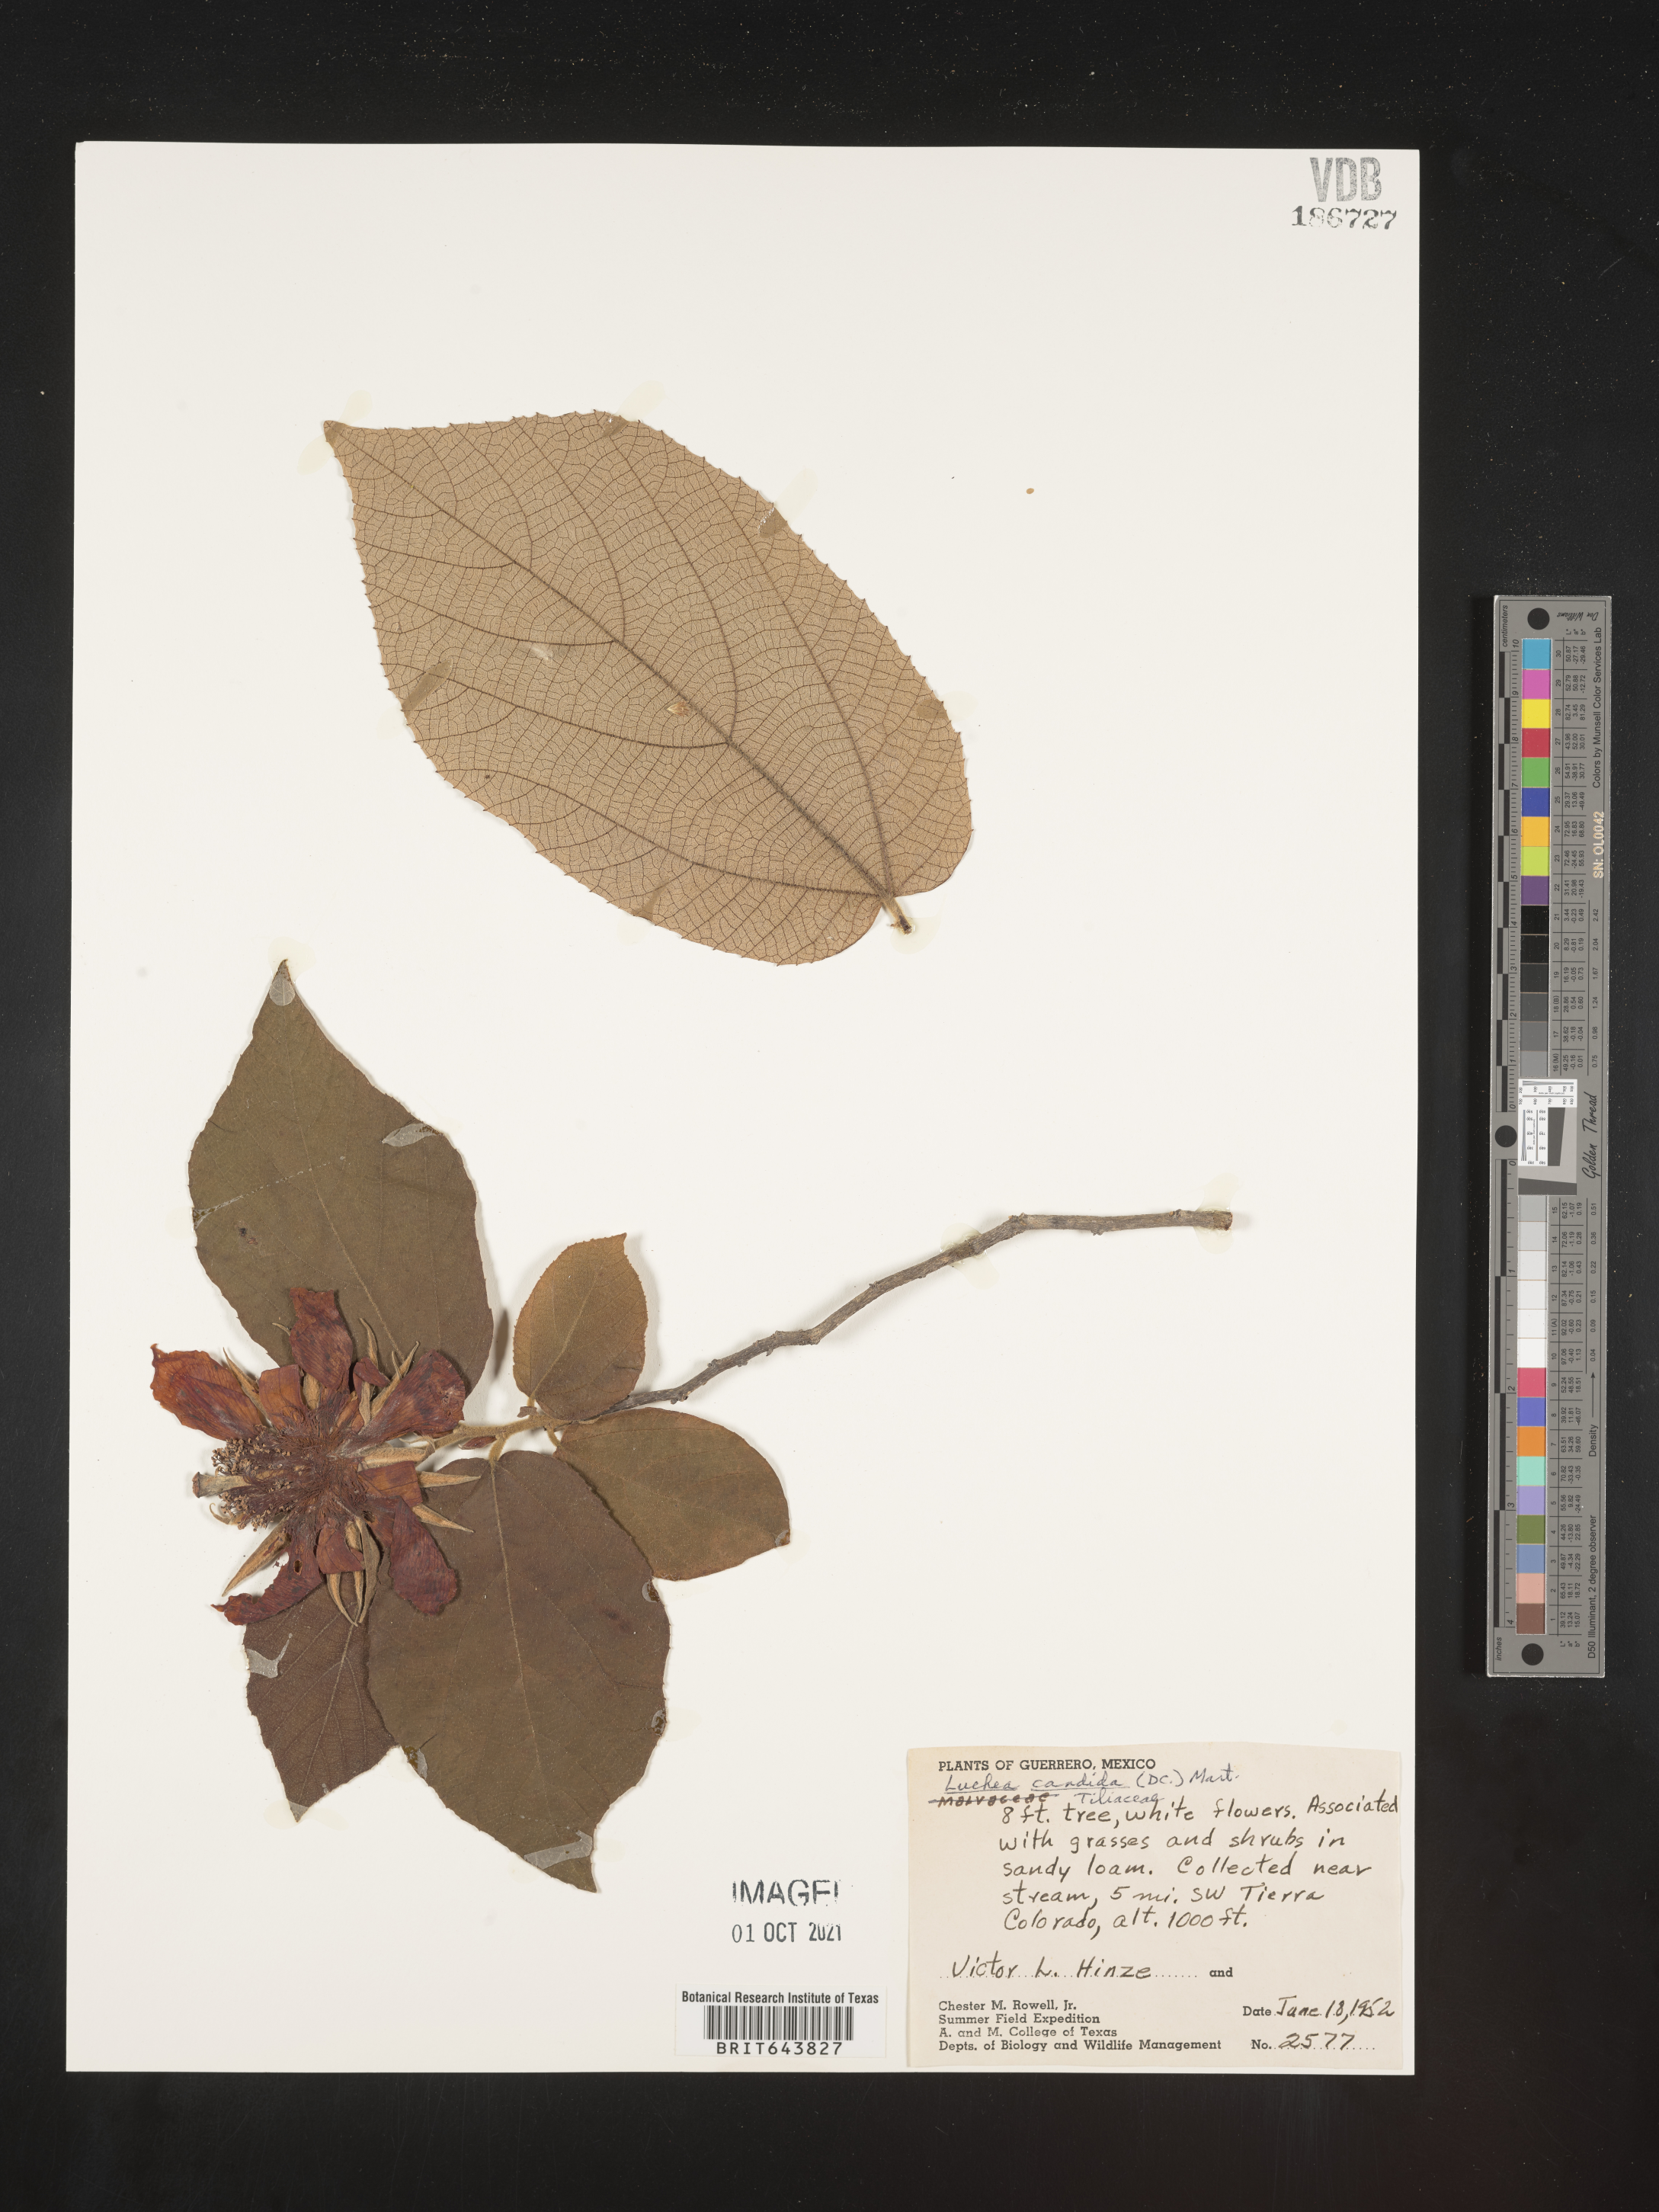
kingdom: Plantae
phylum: Tracheophyta
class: Magnoliopsida
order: Malvales
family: Malvaceae
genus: Luehea
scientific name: Luehea
